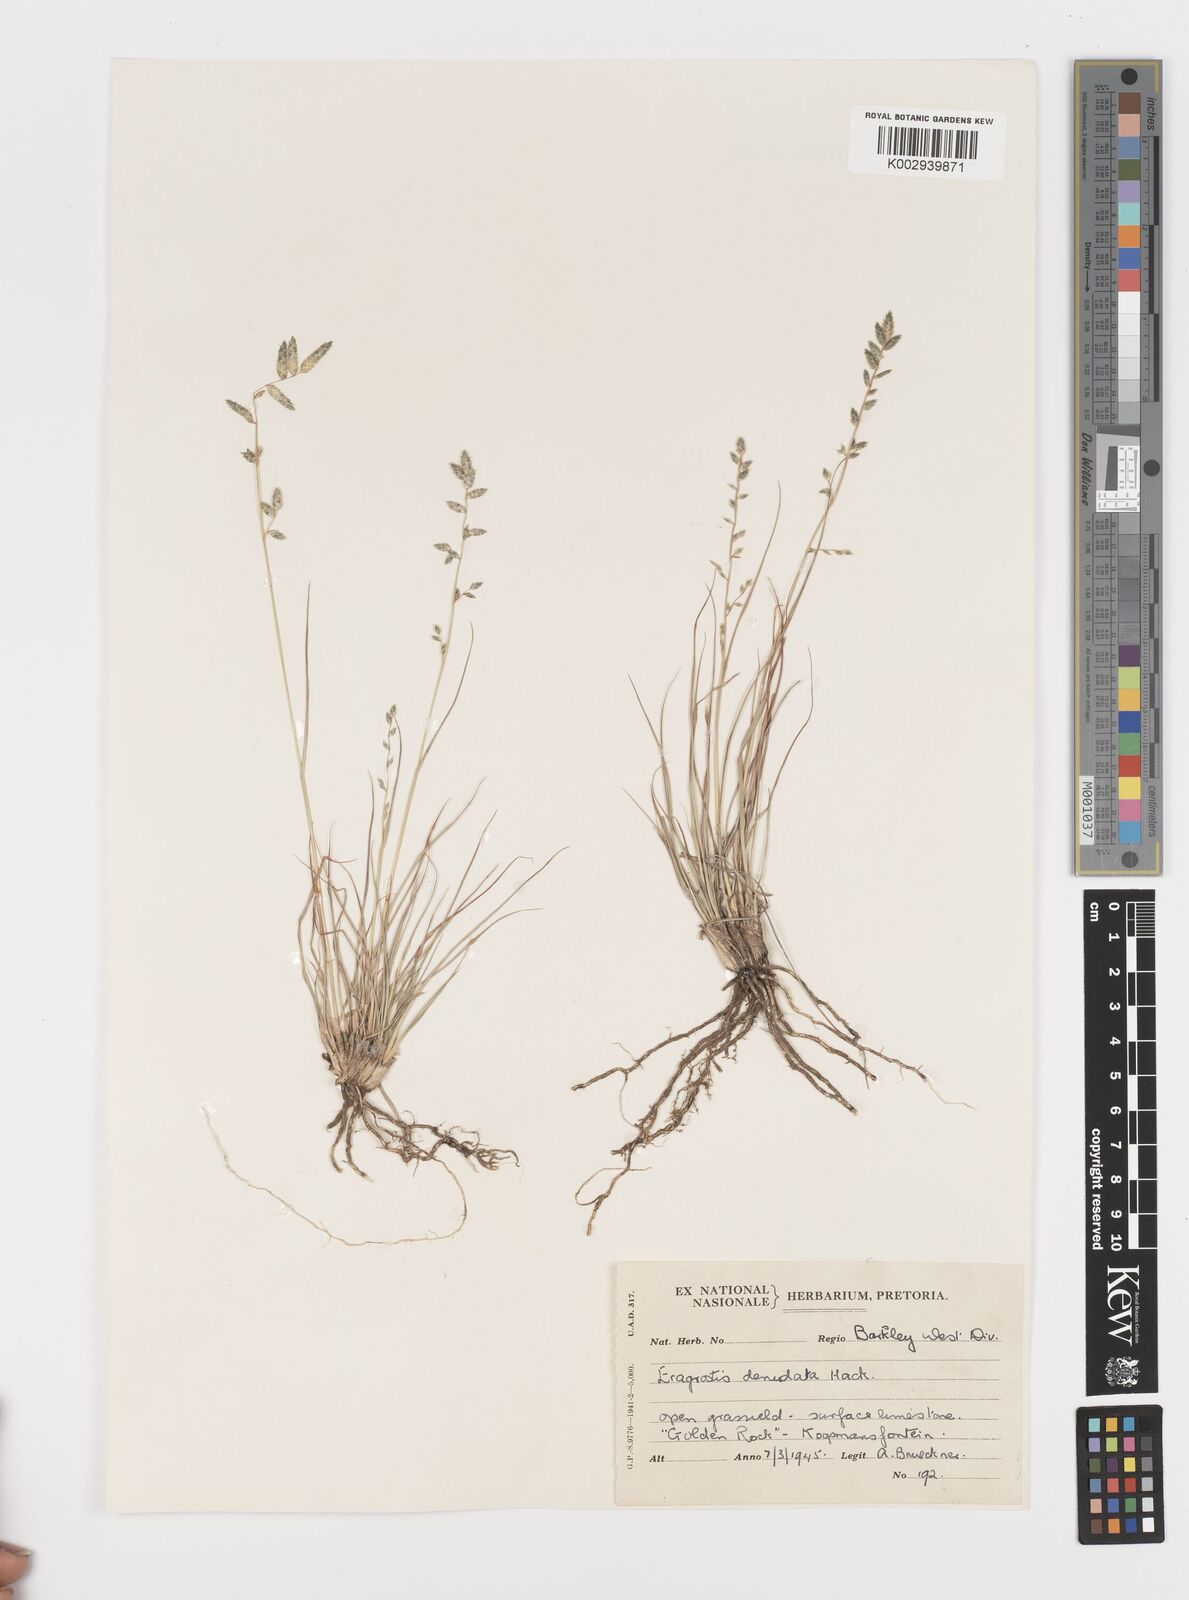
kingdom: Plantae
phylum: Tracheophyta
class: Liliopsida
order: Poales
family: Poaceae
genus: Eragrostis
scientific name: Eragrostis nindensis
